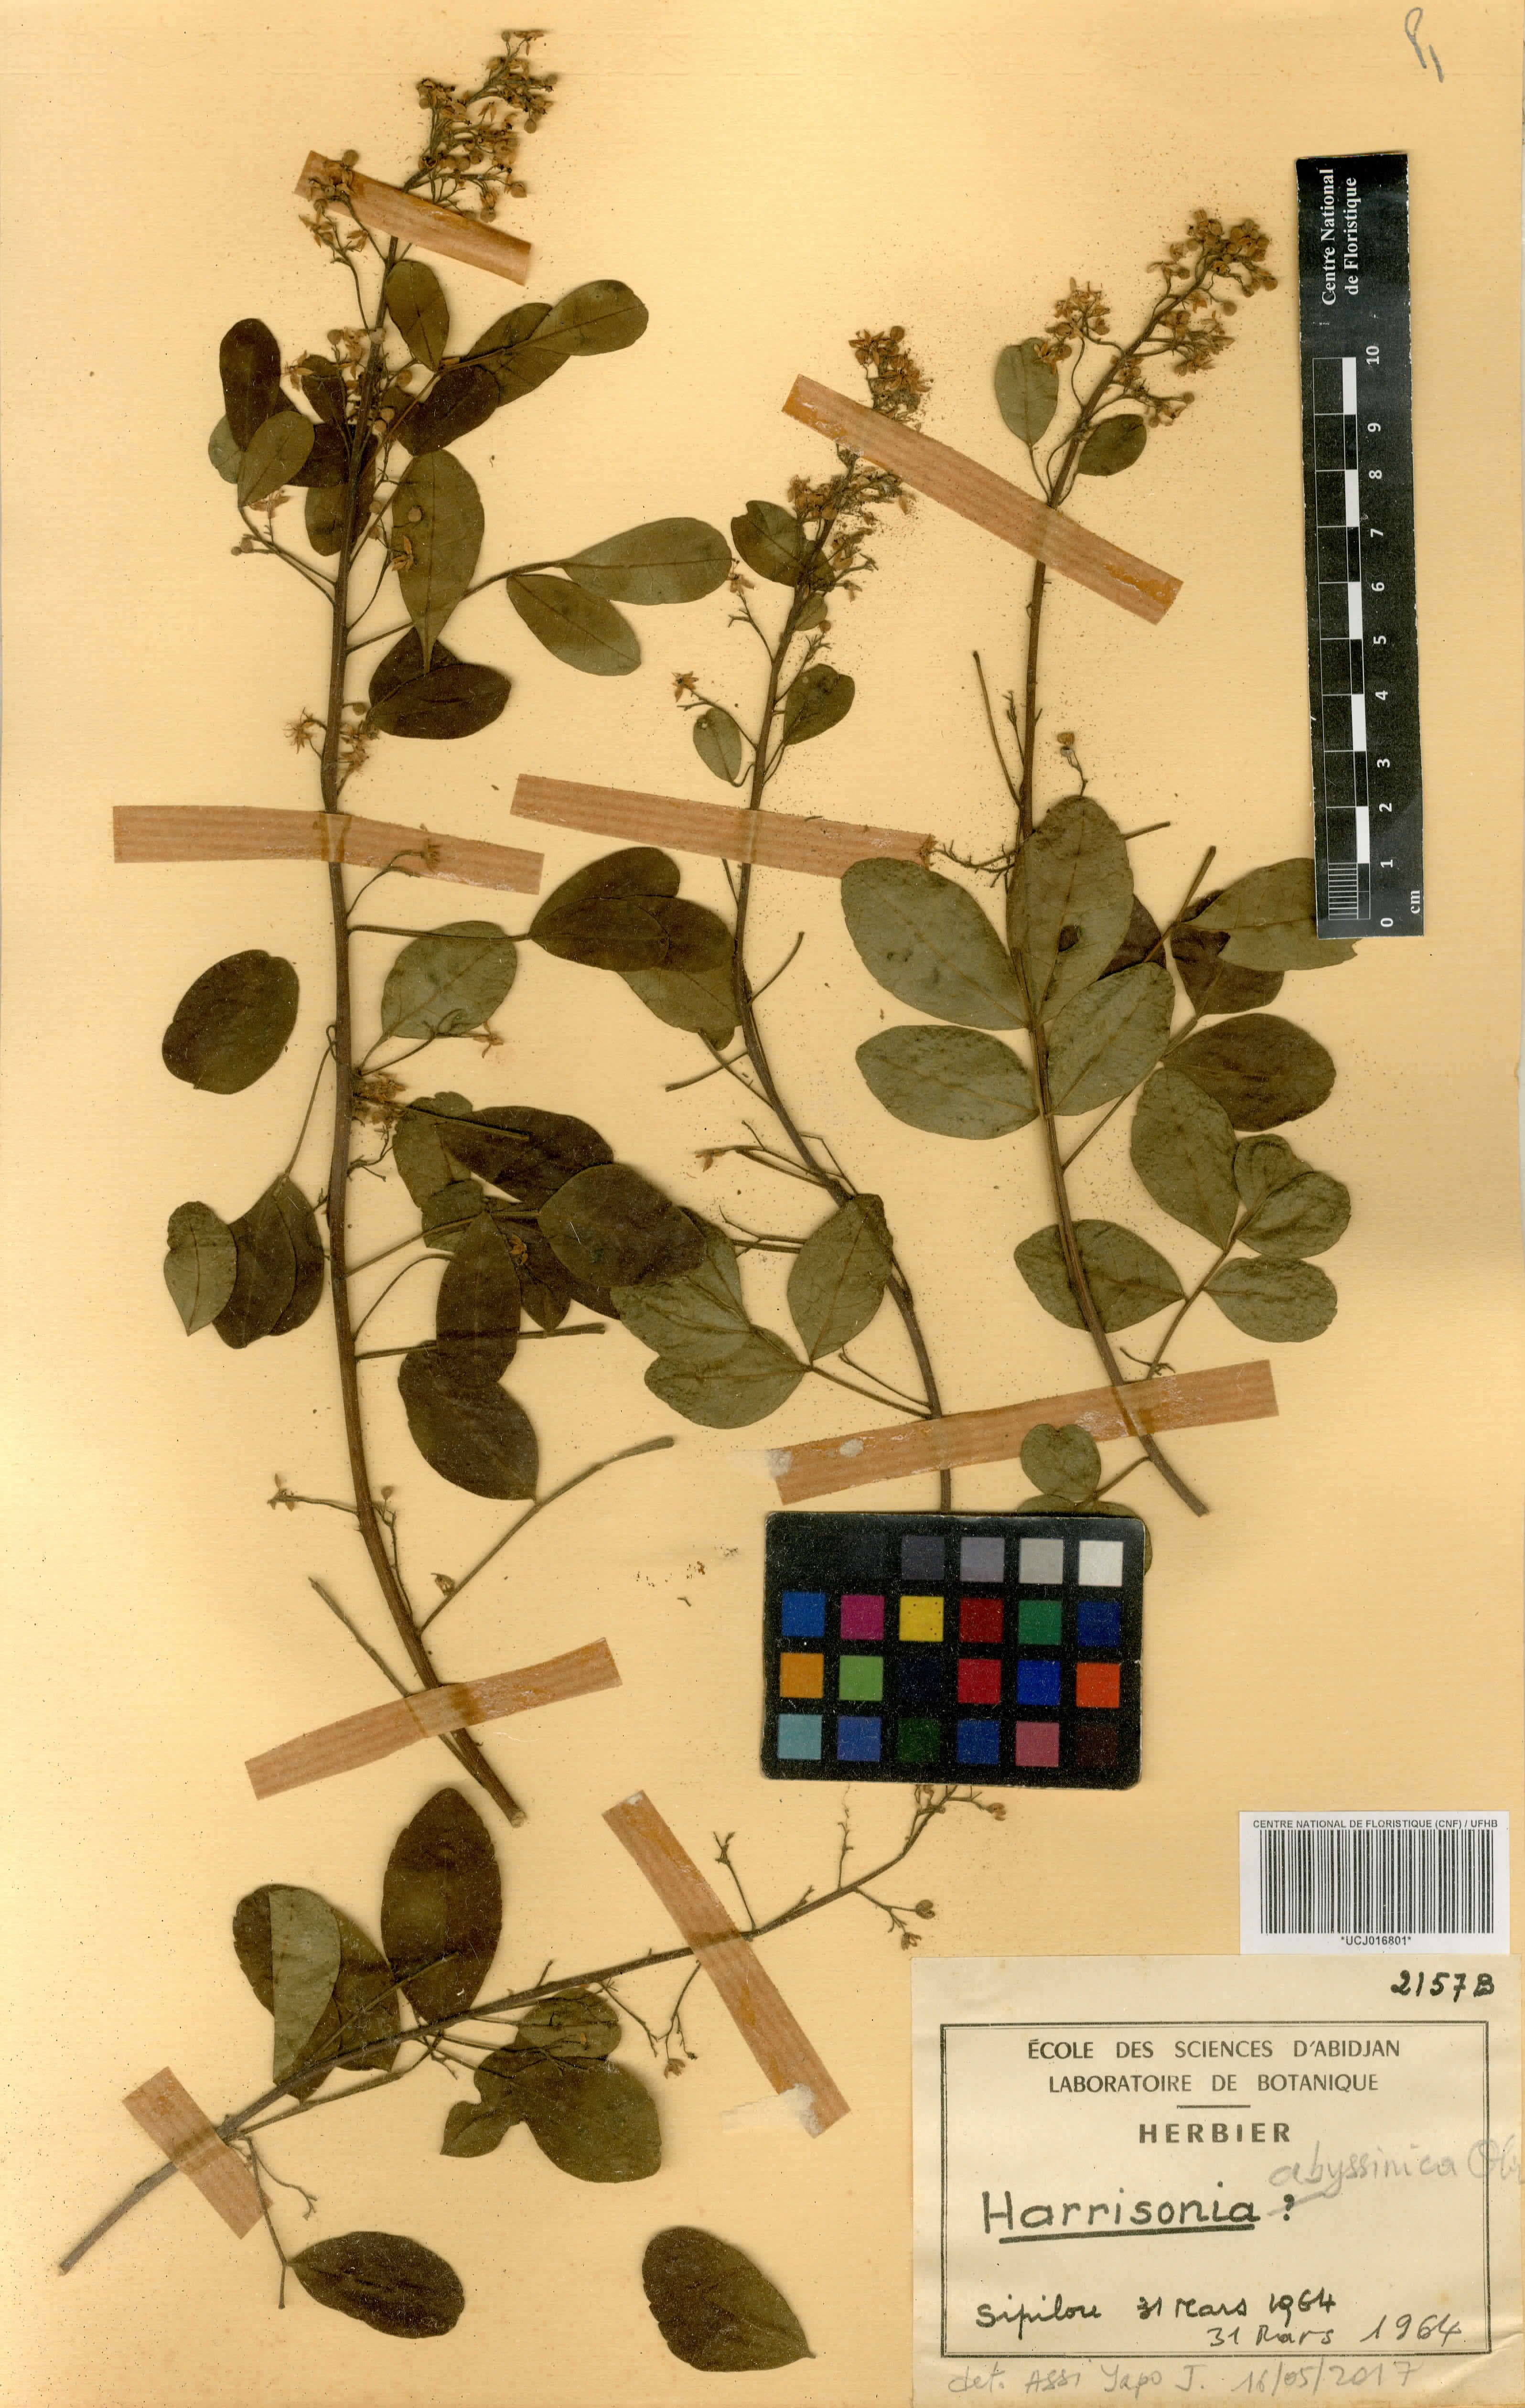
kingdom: Plantae
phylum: Tracheophyta
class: Magnoliopsida
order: Sapindales
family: Rutaceae
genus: Harrisonia
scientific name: Harrisonia abyssinica
